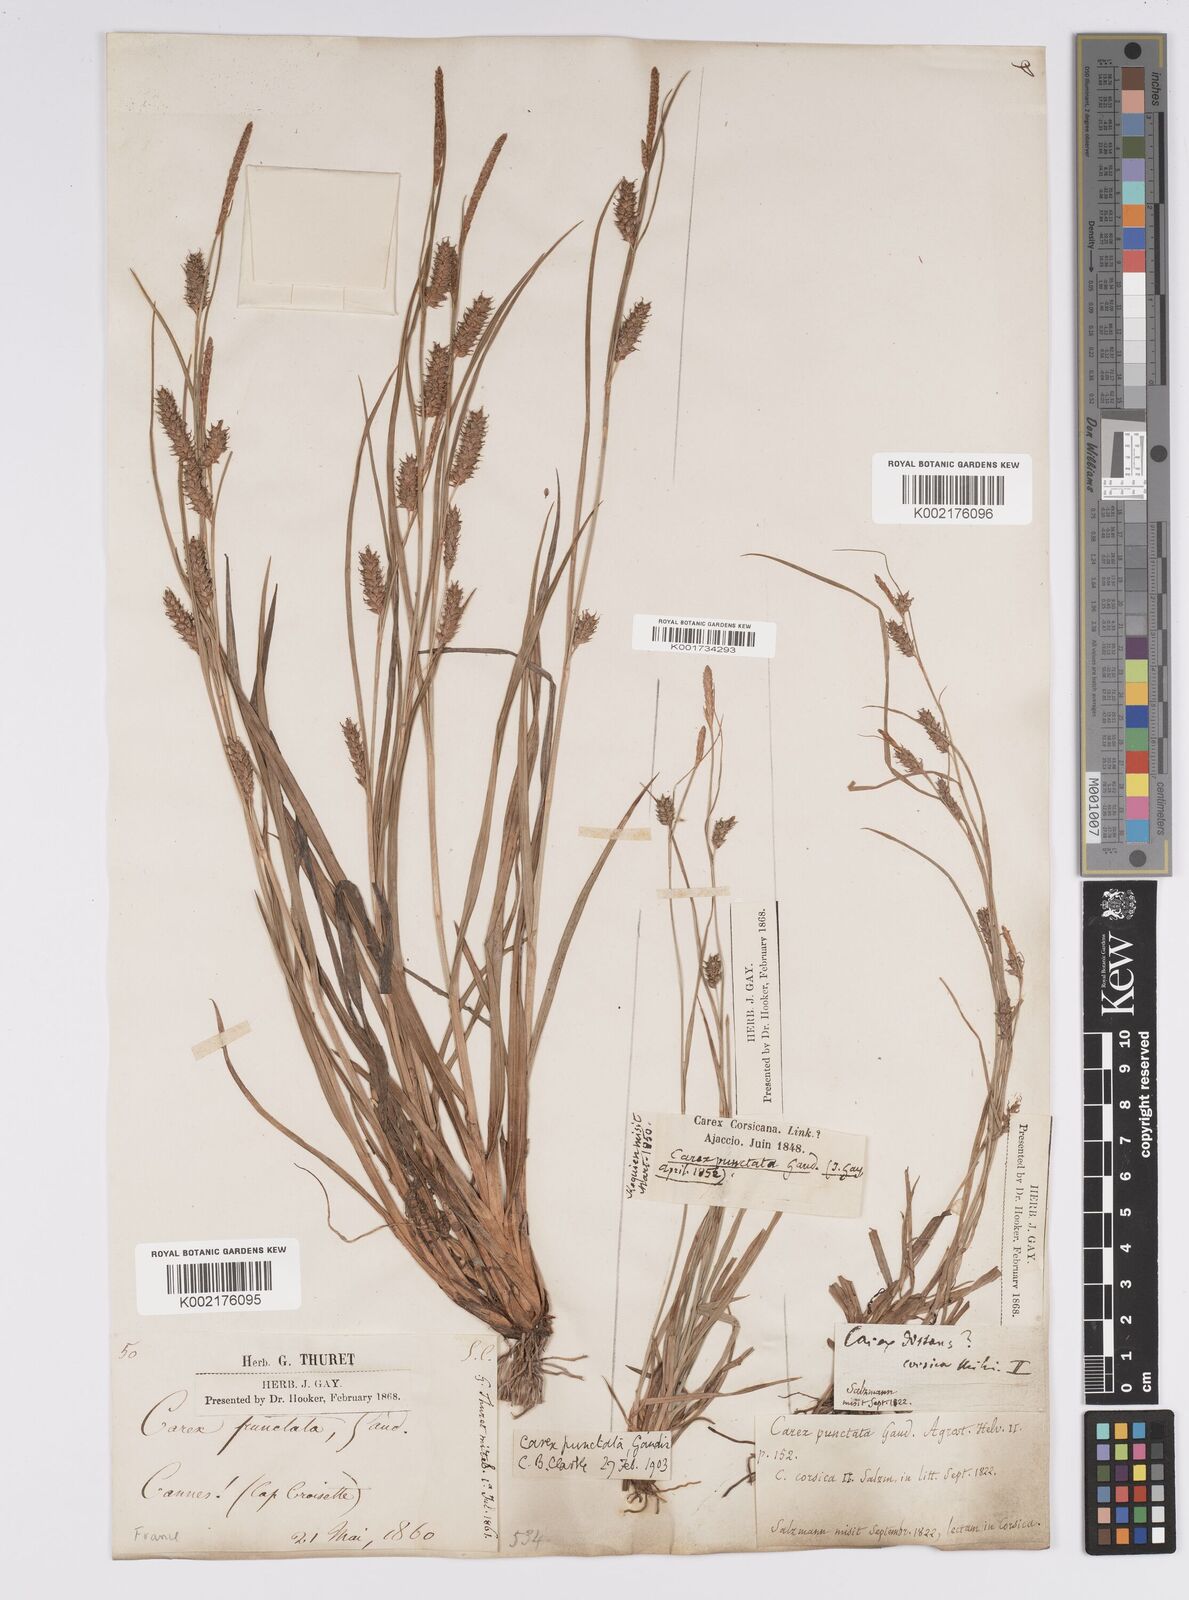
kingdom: Plantae
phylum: Tracheophyta
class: Liliopsida
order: Poales
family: Cyperaceae
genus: Carex
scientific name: Carex punctata
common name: Dotted sedge
